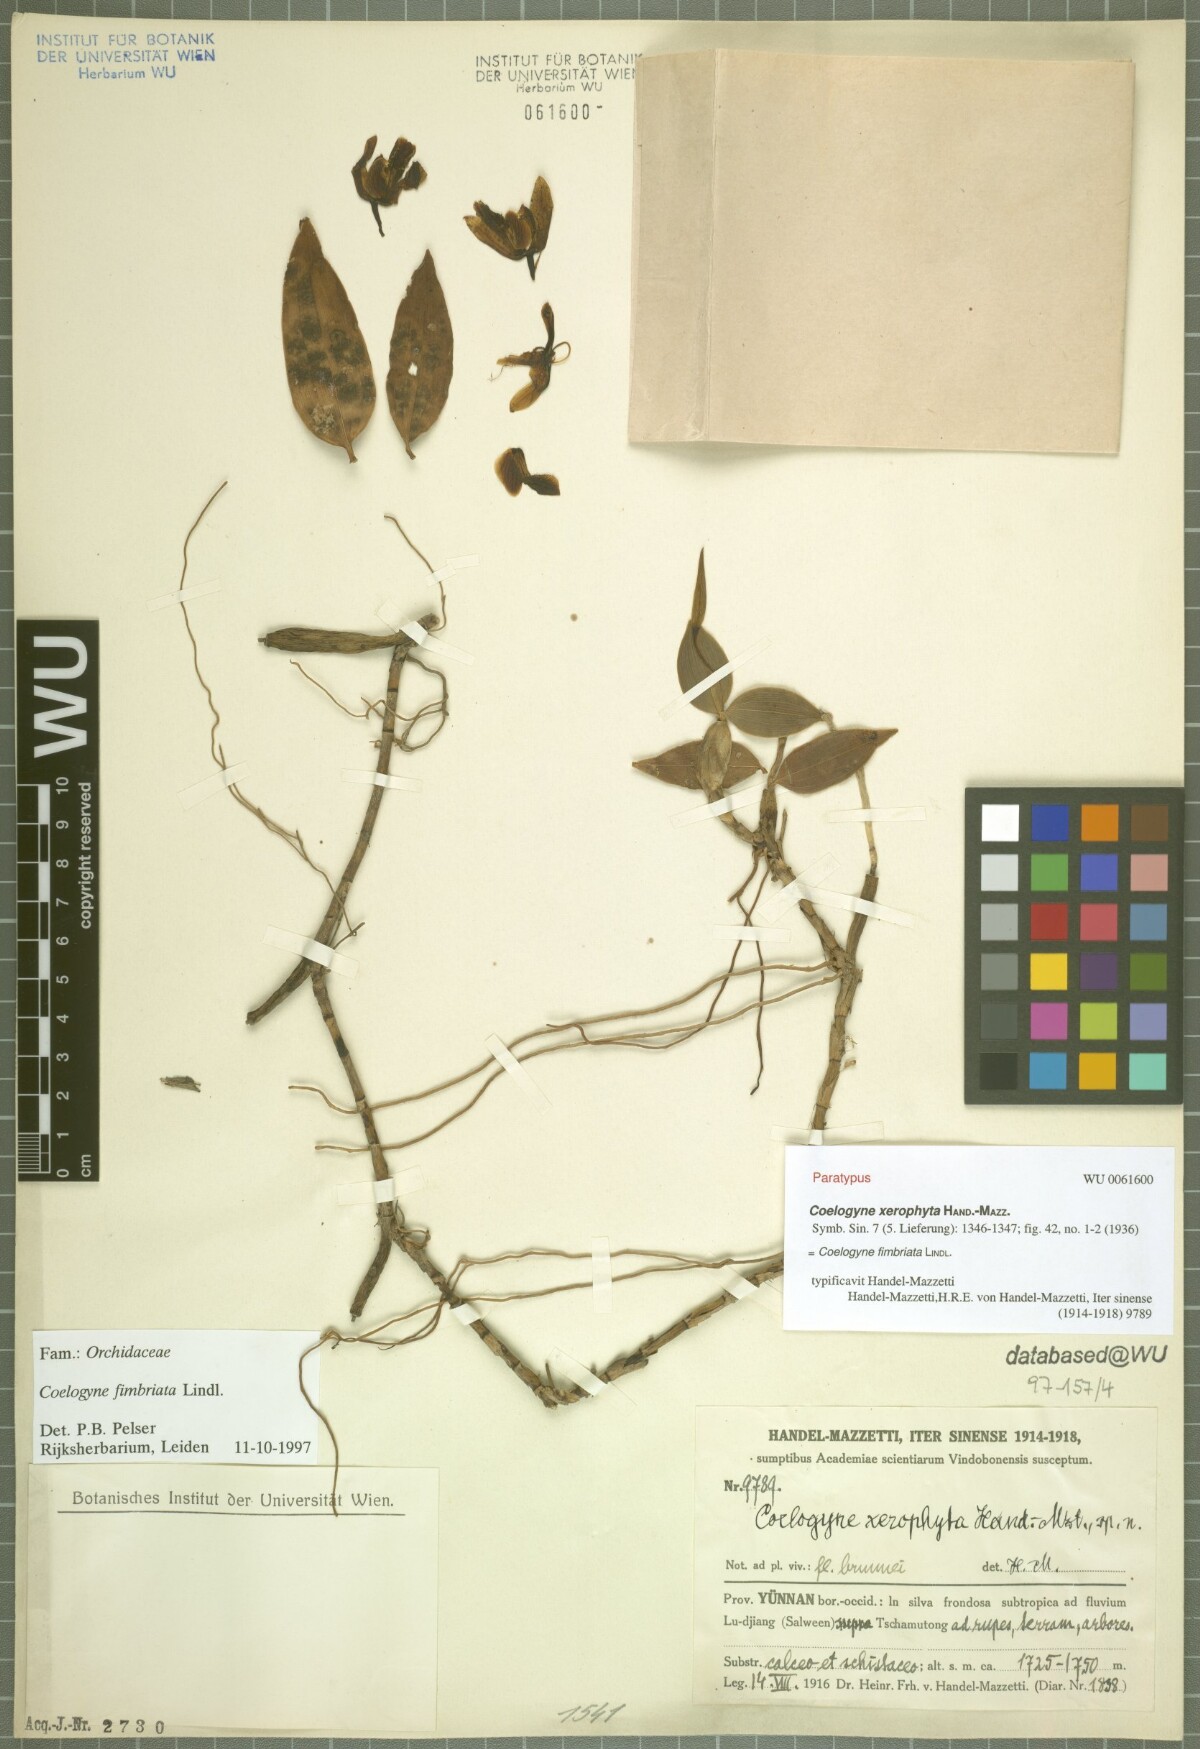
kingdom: Plantae
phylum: Tracheophyta
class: Liliopsida
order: Asparagales
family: Orchidaceae
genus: Coelogyne
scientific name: Coelogyne fimbriata
